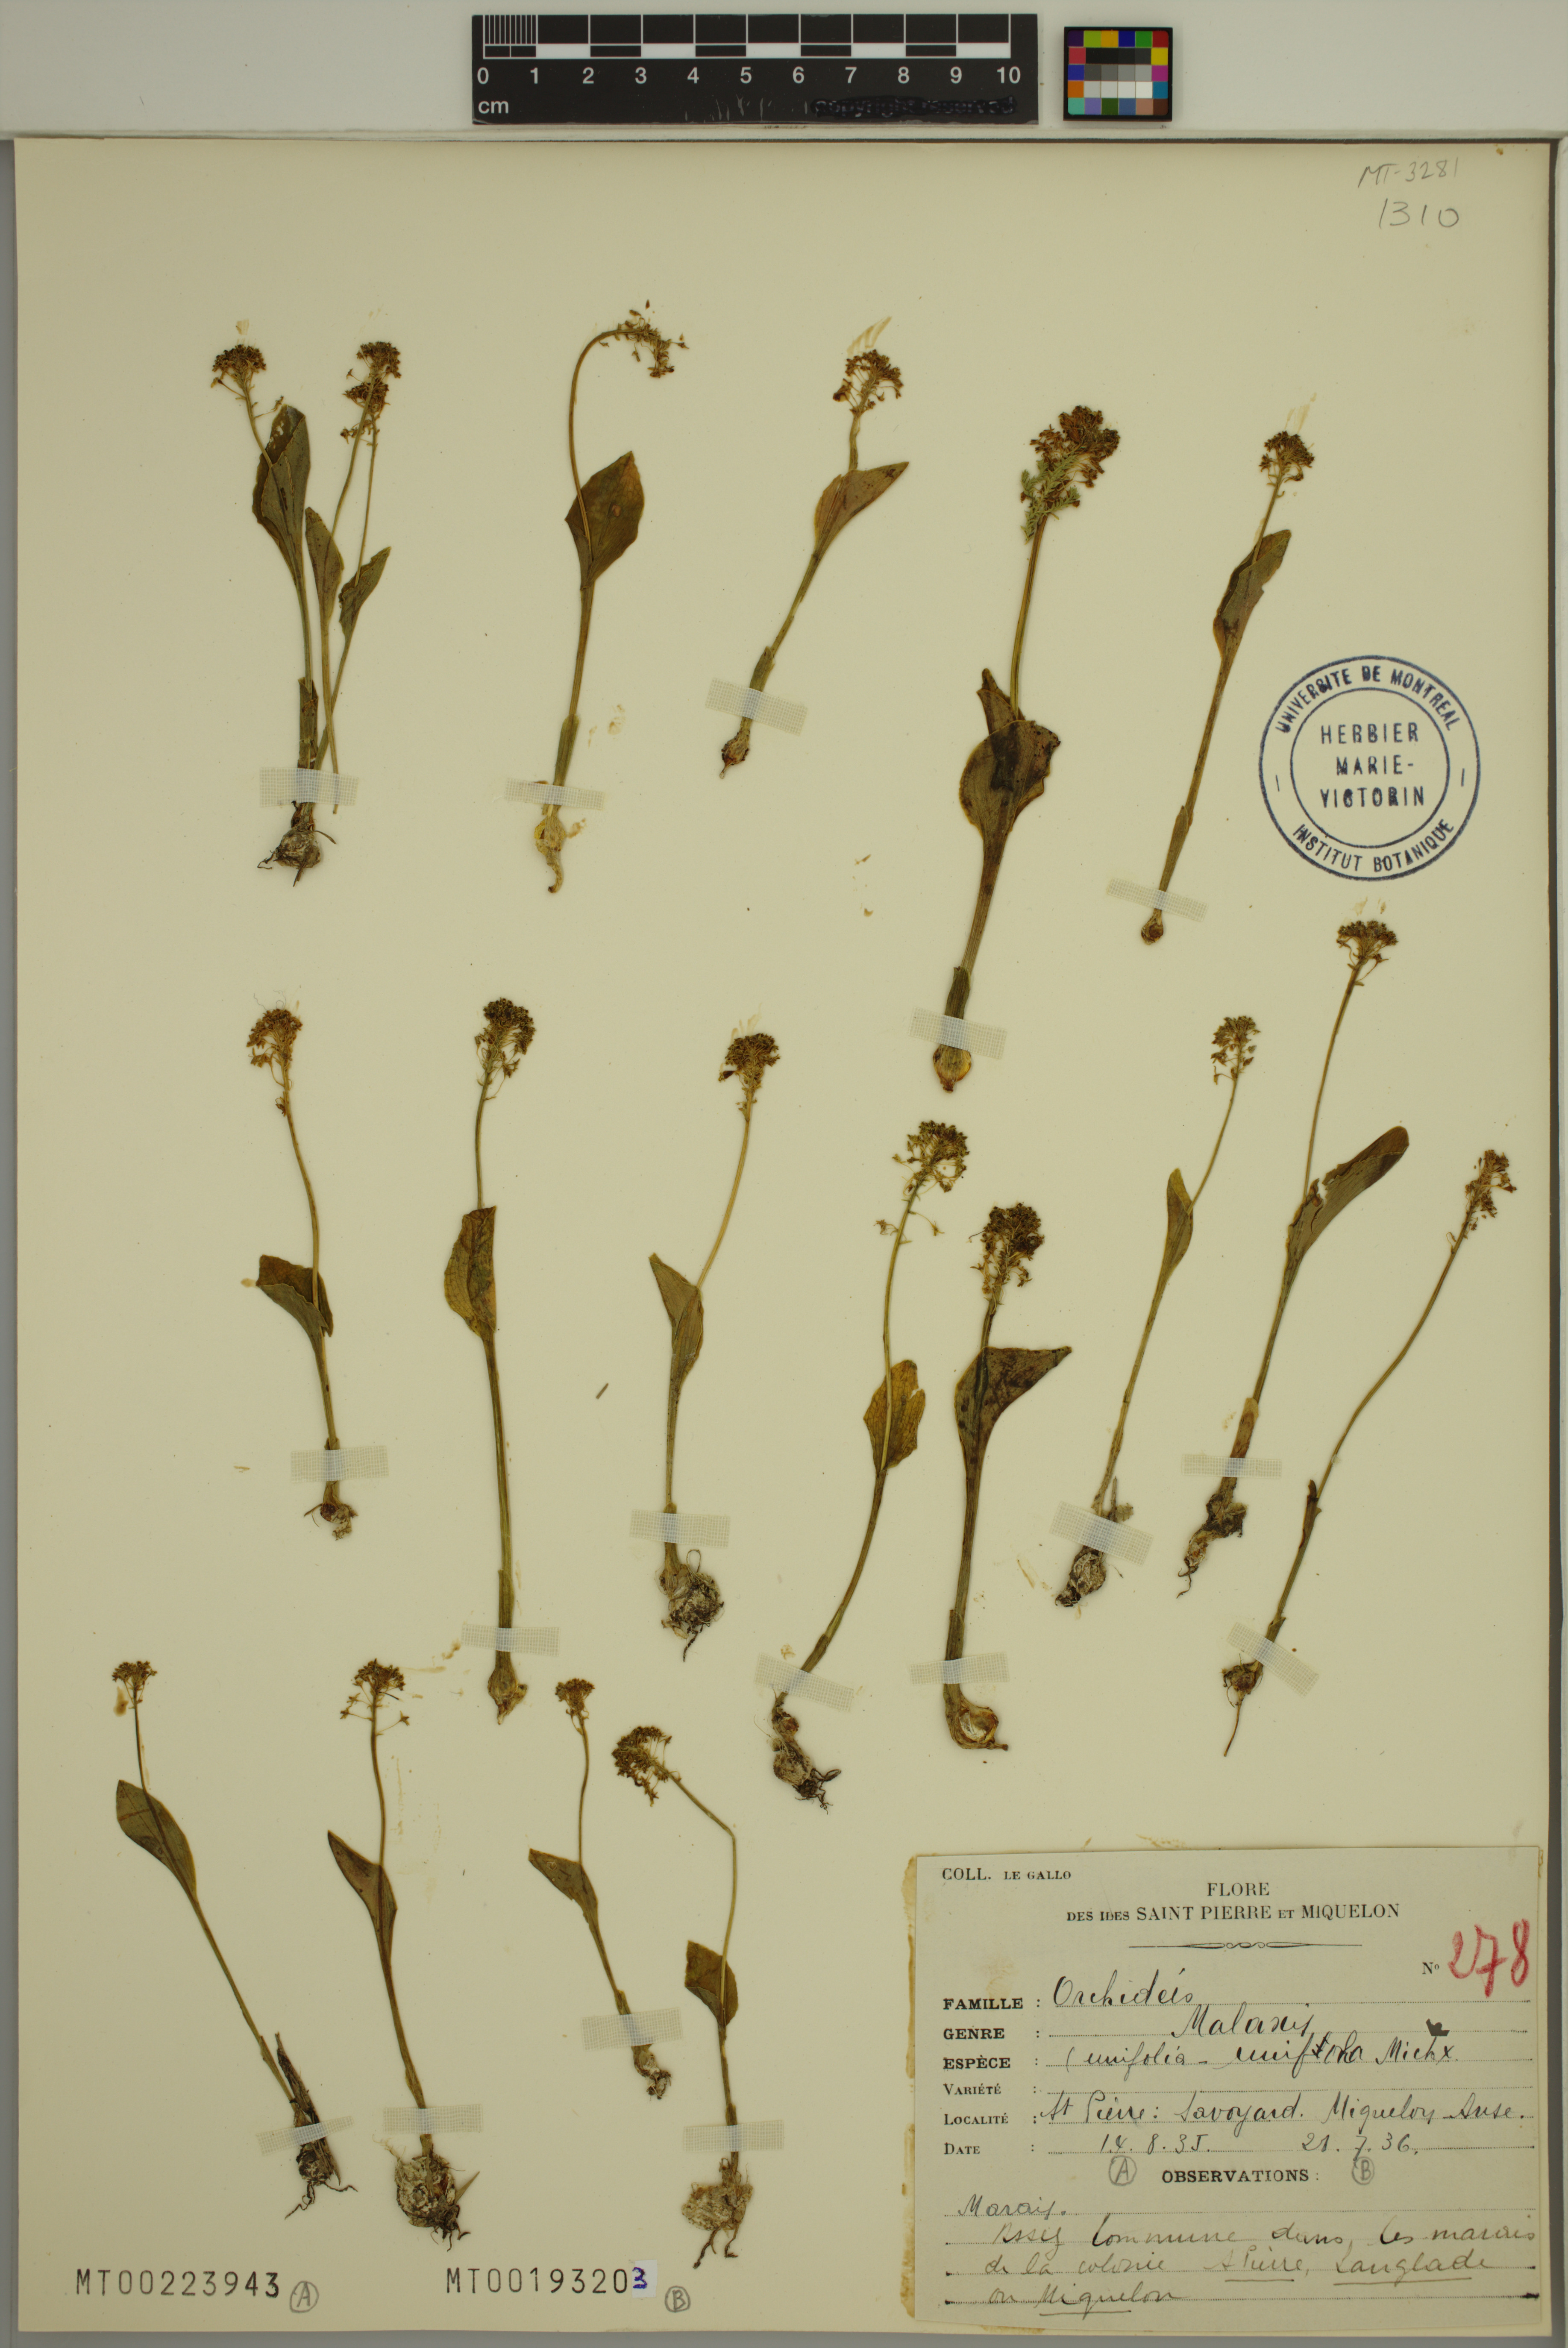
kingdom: Plantae
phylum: Tracheophyta
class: Liliopsida
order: Asparagales
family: Orchidaceae
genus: Malaxis
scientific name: Malaxis unifolia
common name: Green adder's-mouth
